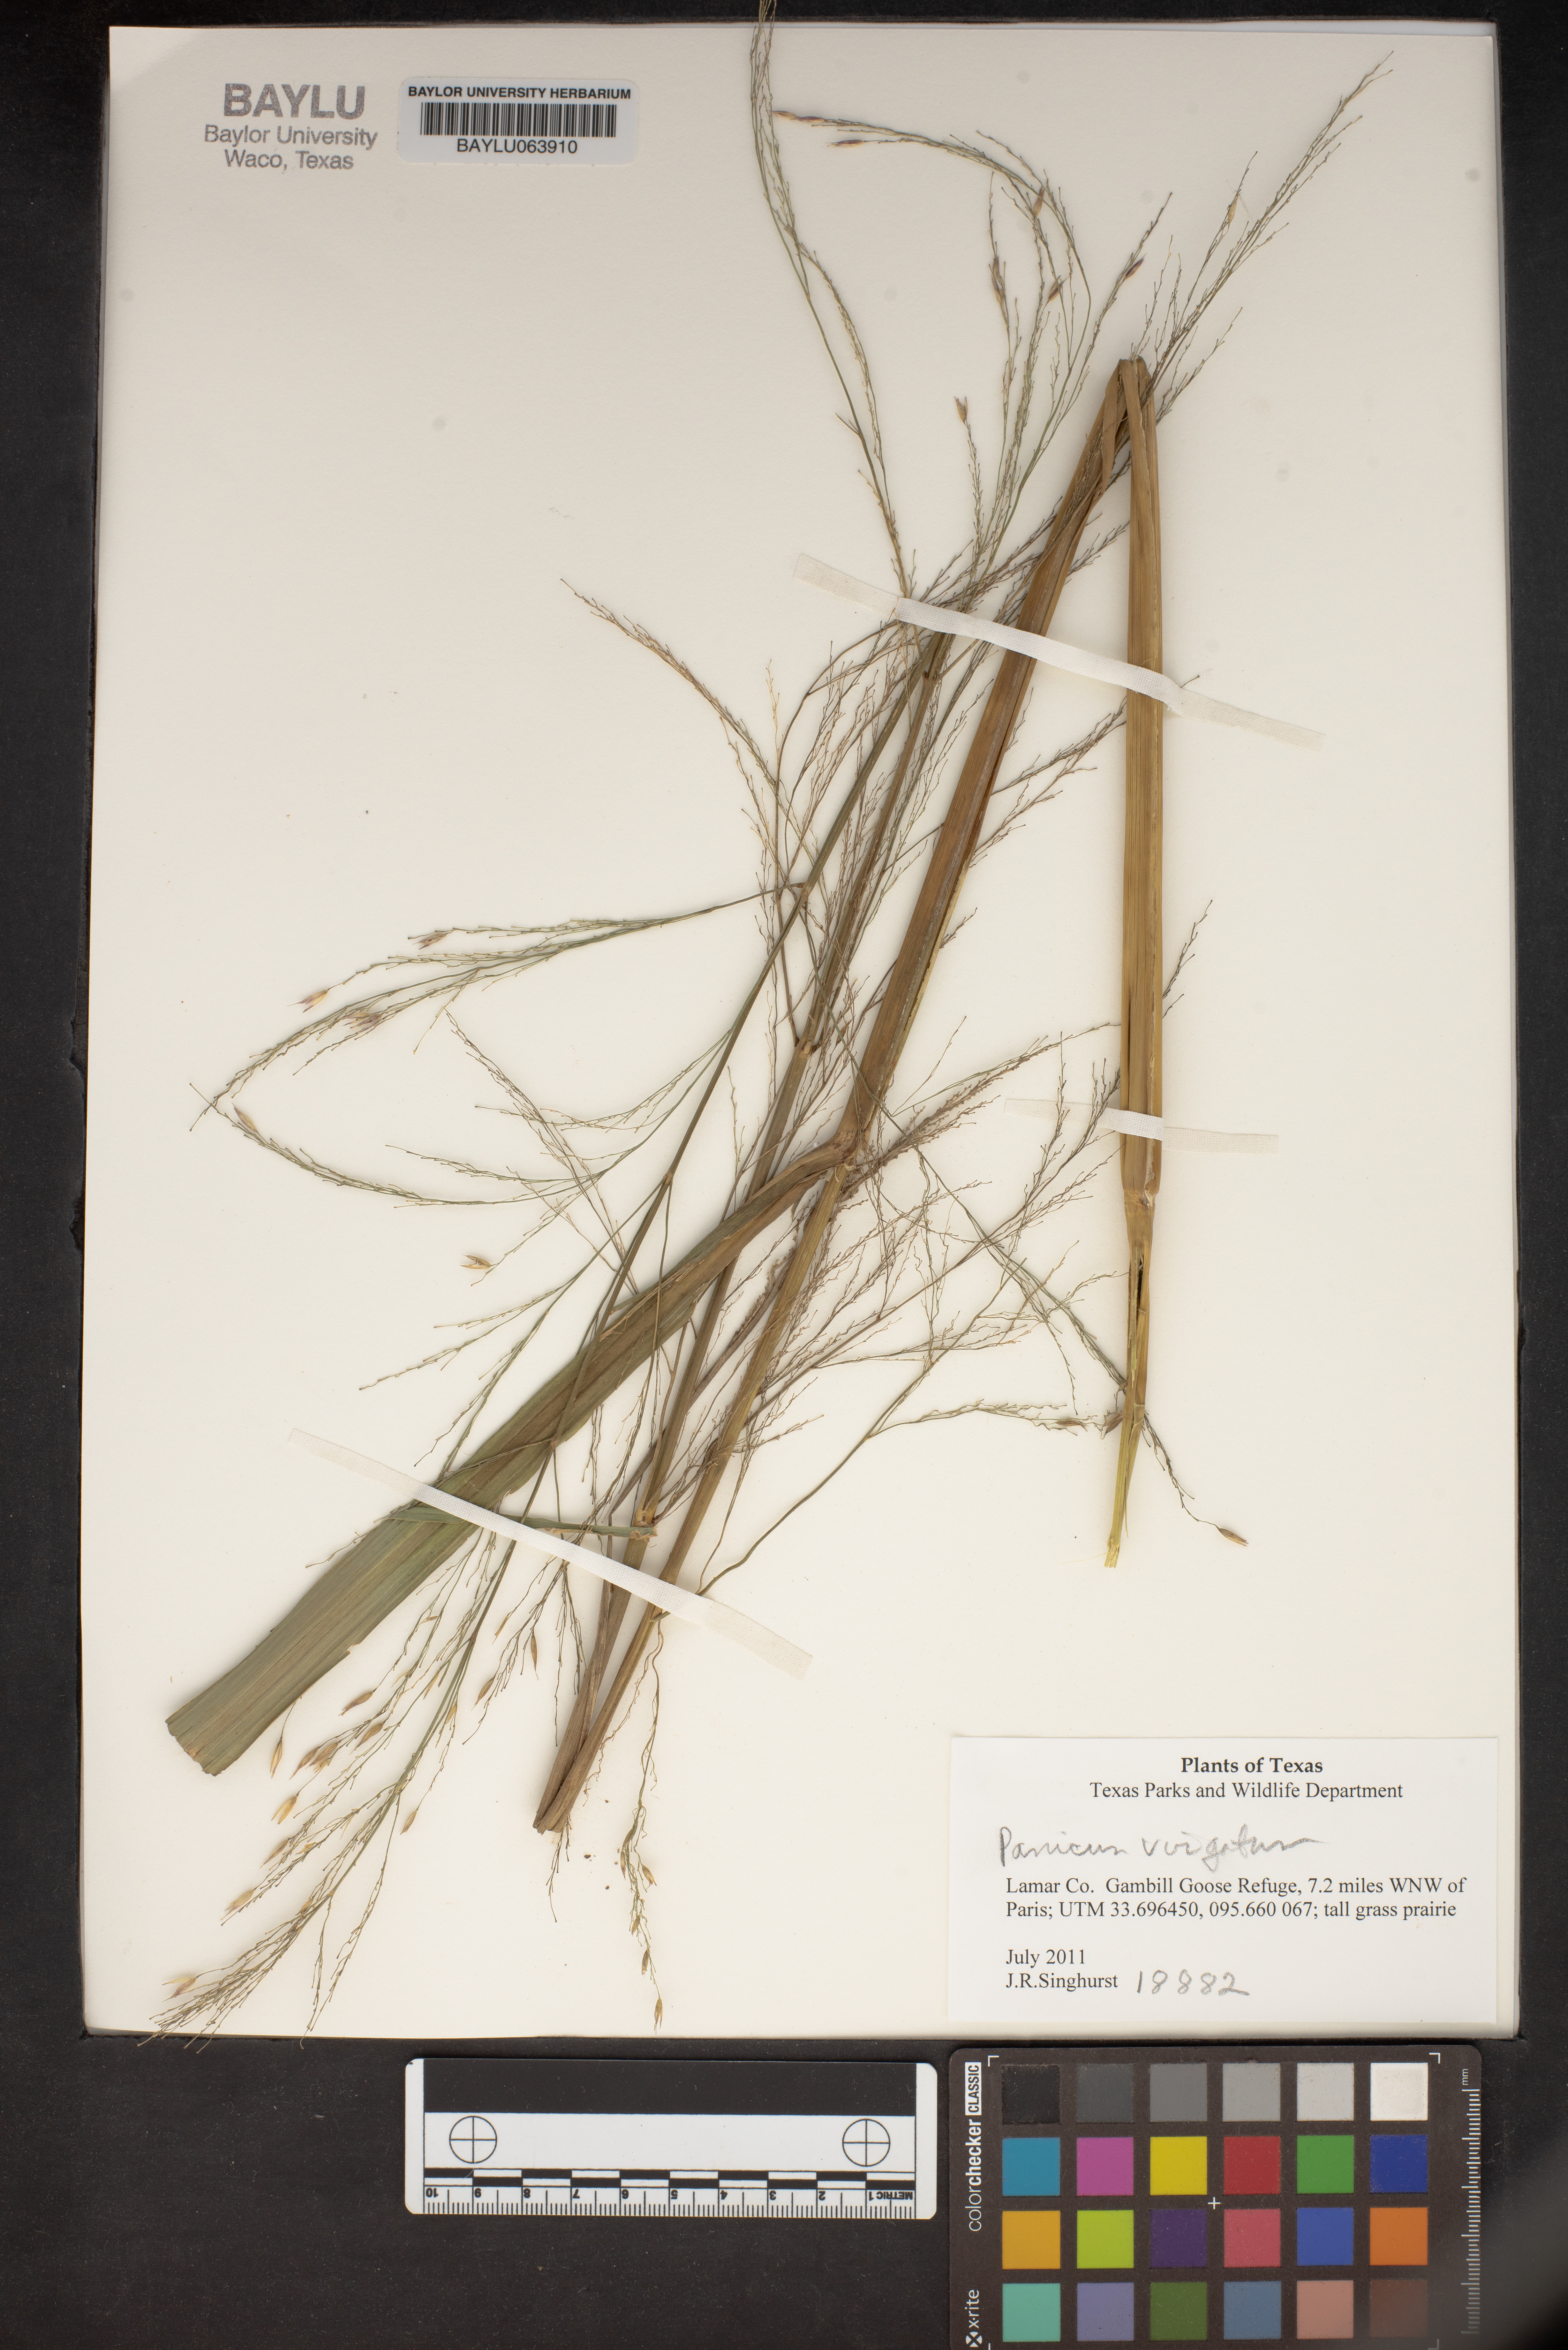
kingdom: Plantae
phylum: Tracheophyta
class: Liliopsida
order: Poales
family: Poaceae
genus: Panicum
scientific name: Panicum virgatum
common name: Switchgrass
